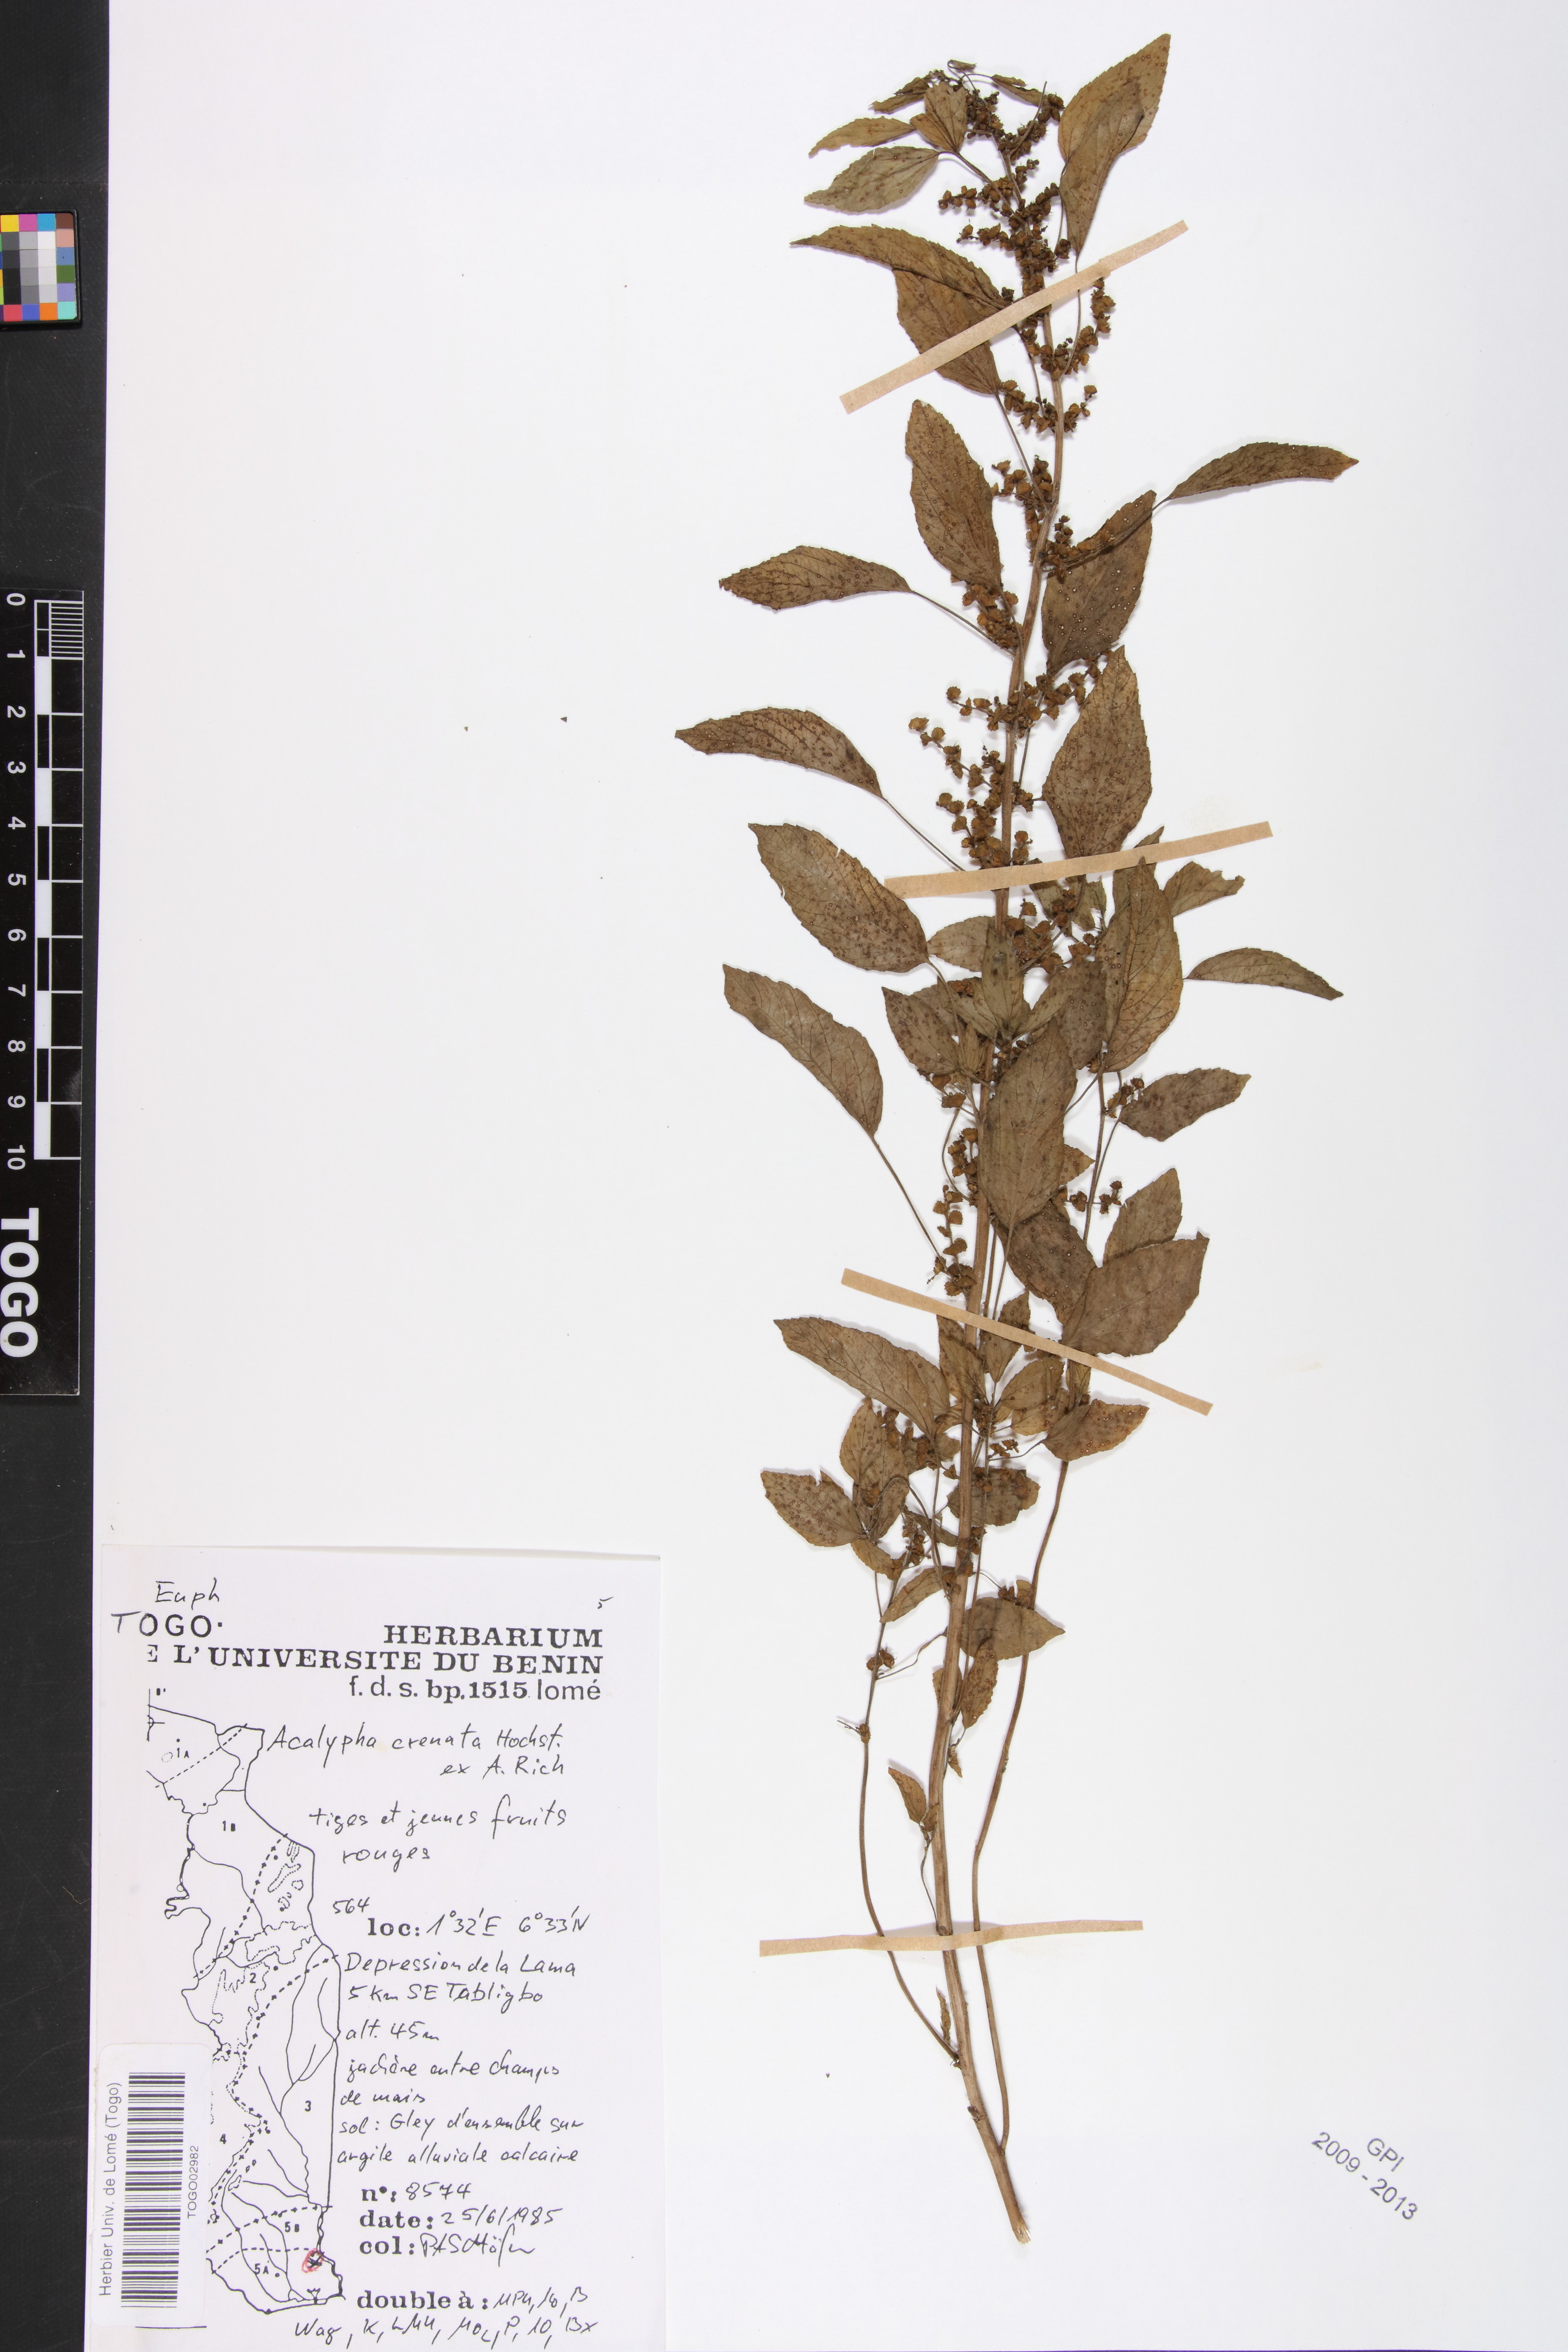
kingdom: Plantae
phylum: Tracheophyta
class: Magnoliopsida
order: Malpighiales
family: Euphorbiaceae
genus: Acalypha
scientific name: Acalypha crenata
